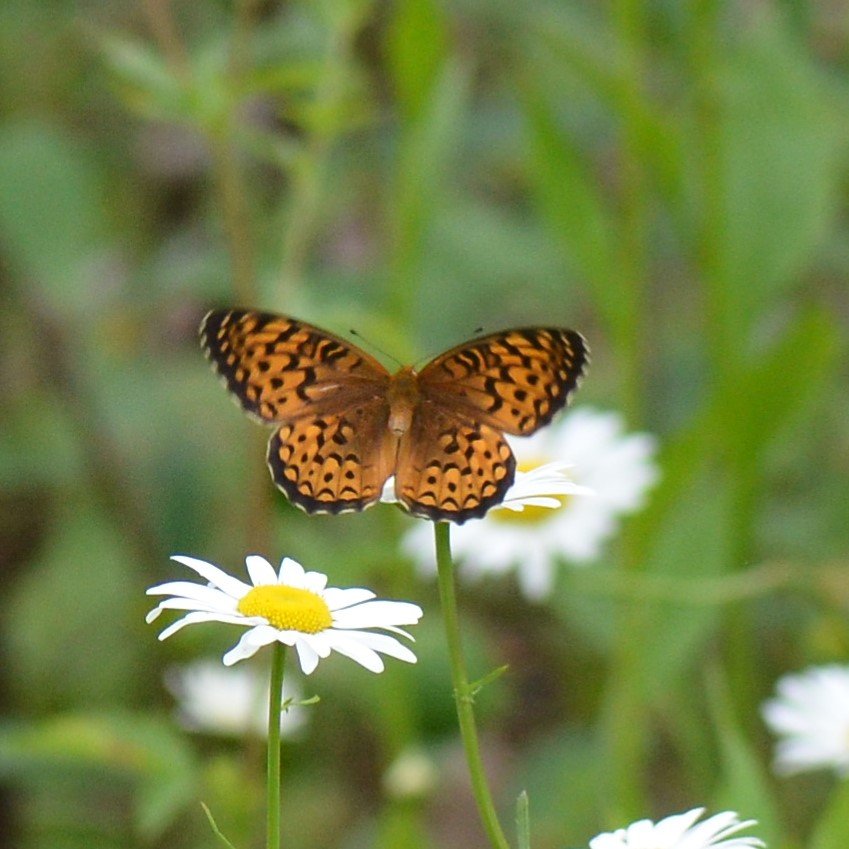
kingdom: Animalia
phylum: Arthropoda
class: Insecta
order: Lepidoptera
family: Nymphalidae
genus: Speyeria
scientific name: Speyeria atlantis
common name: Atlantis Fritillary
